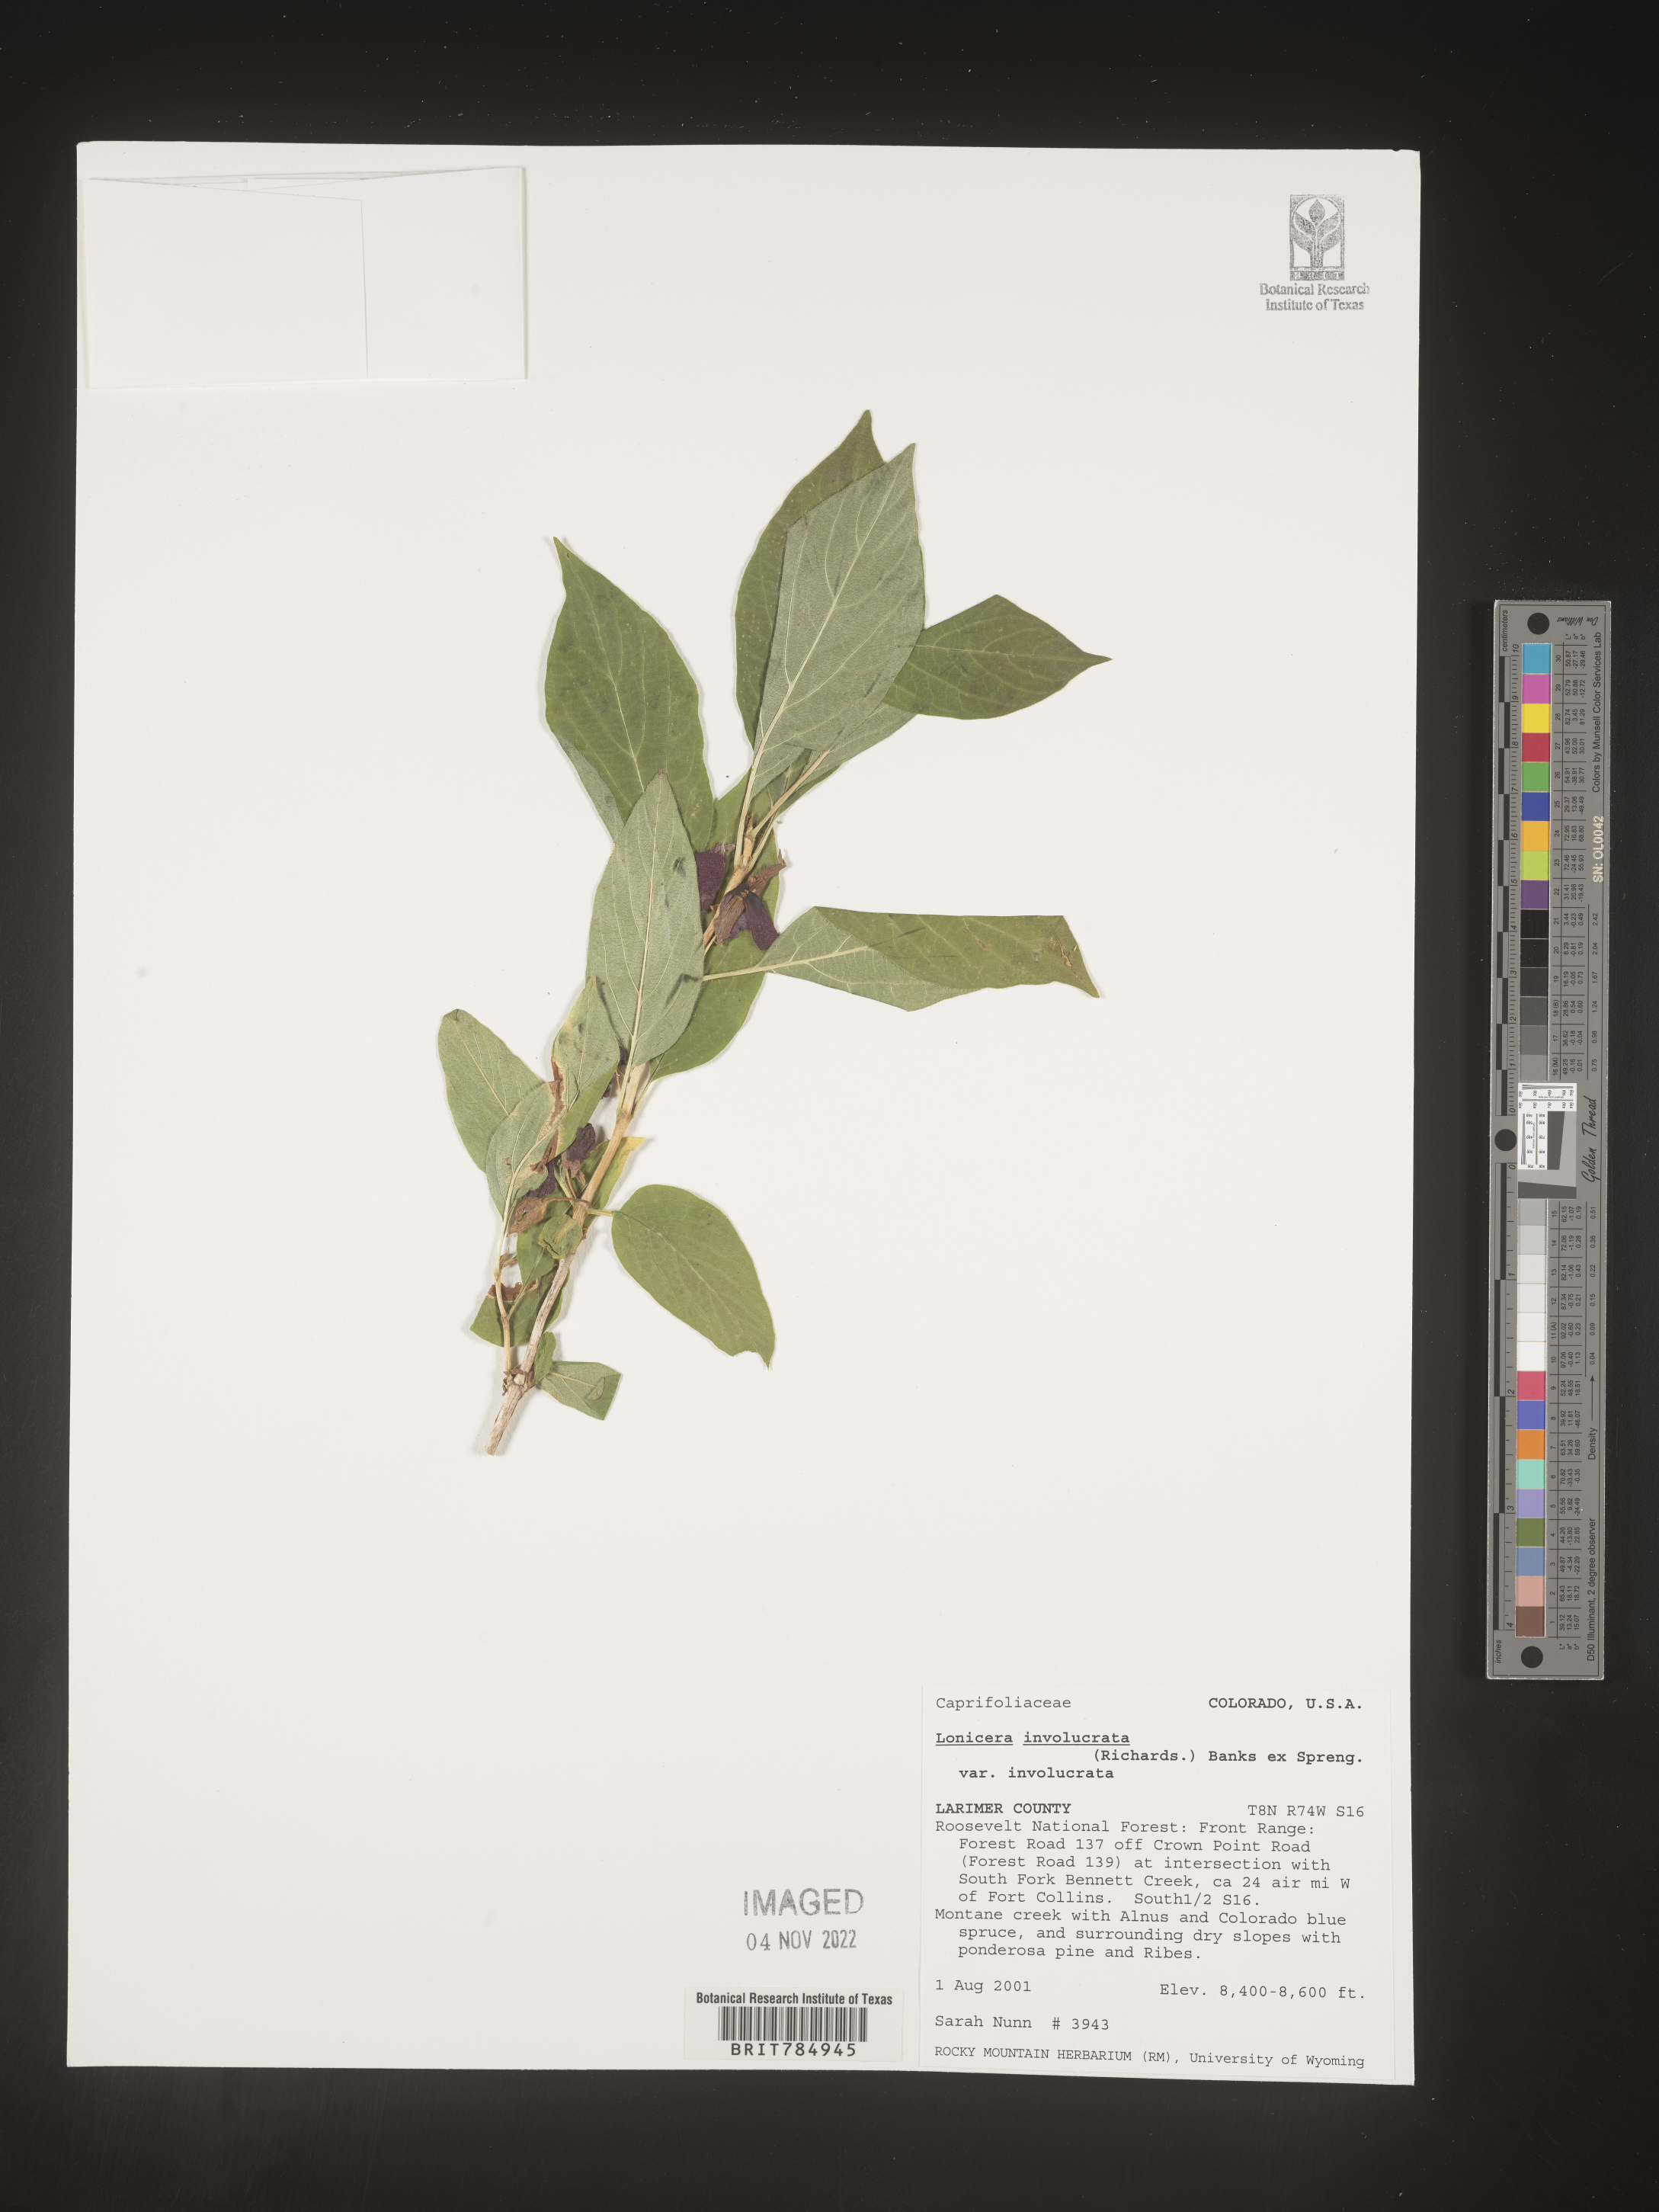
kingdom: Plantae
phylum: Tracheophyta
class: Magnoliopsida
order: Dipsacales
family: Caprifoliaceae
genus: Lonicera
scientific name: Lonicera involucrata
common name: Californian honeysuckle
